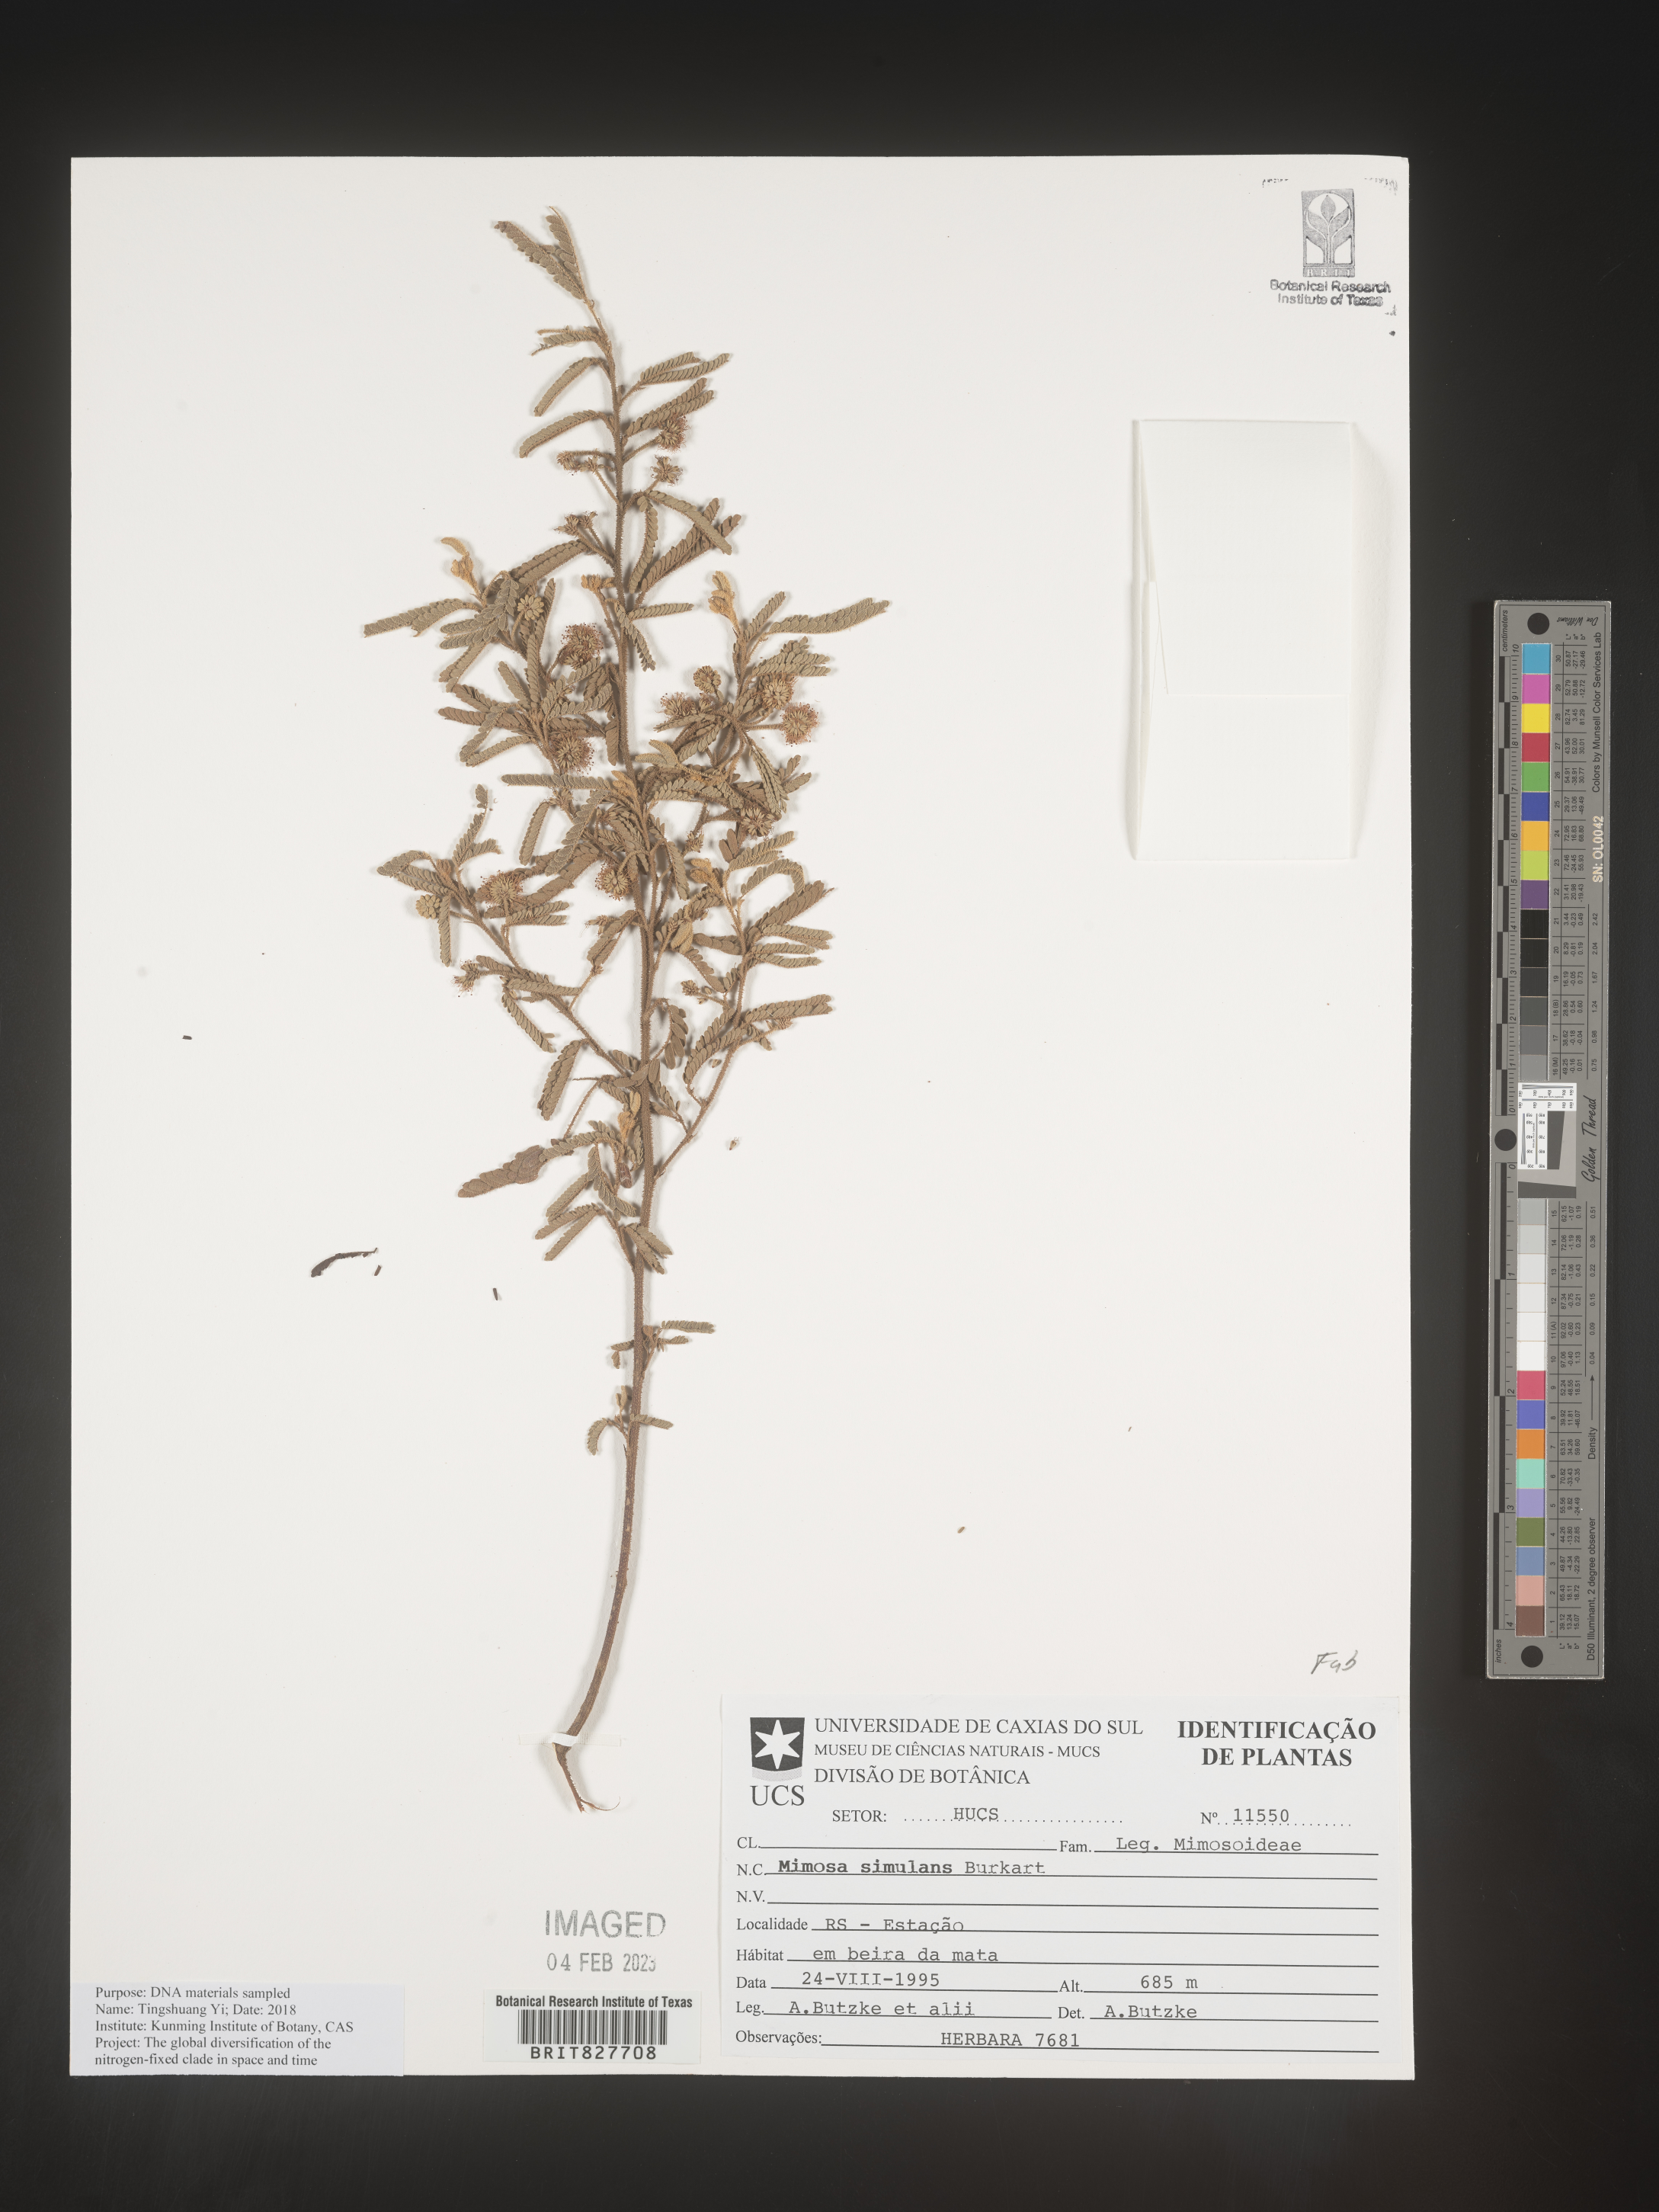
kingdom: Plantae
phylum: Tracheophyta
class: Magnoliopsida
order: Fabales
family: Fabaceae
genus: Mimosa
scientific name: Mimosa
